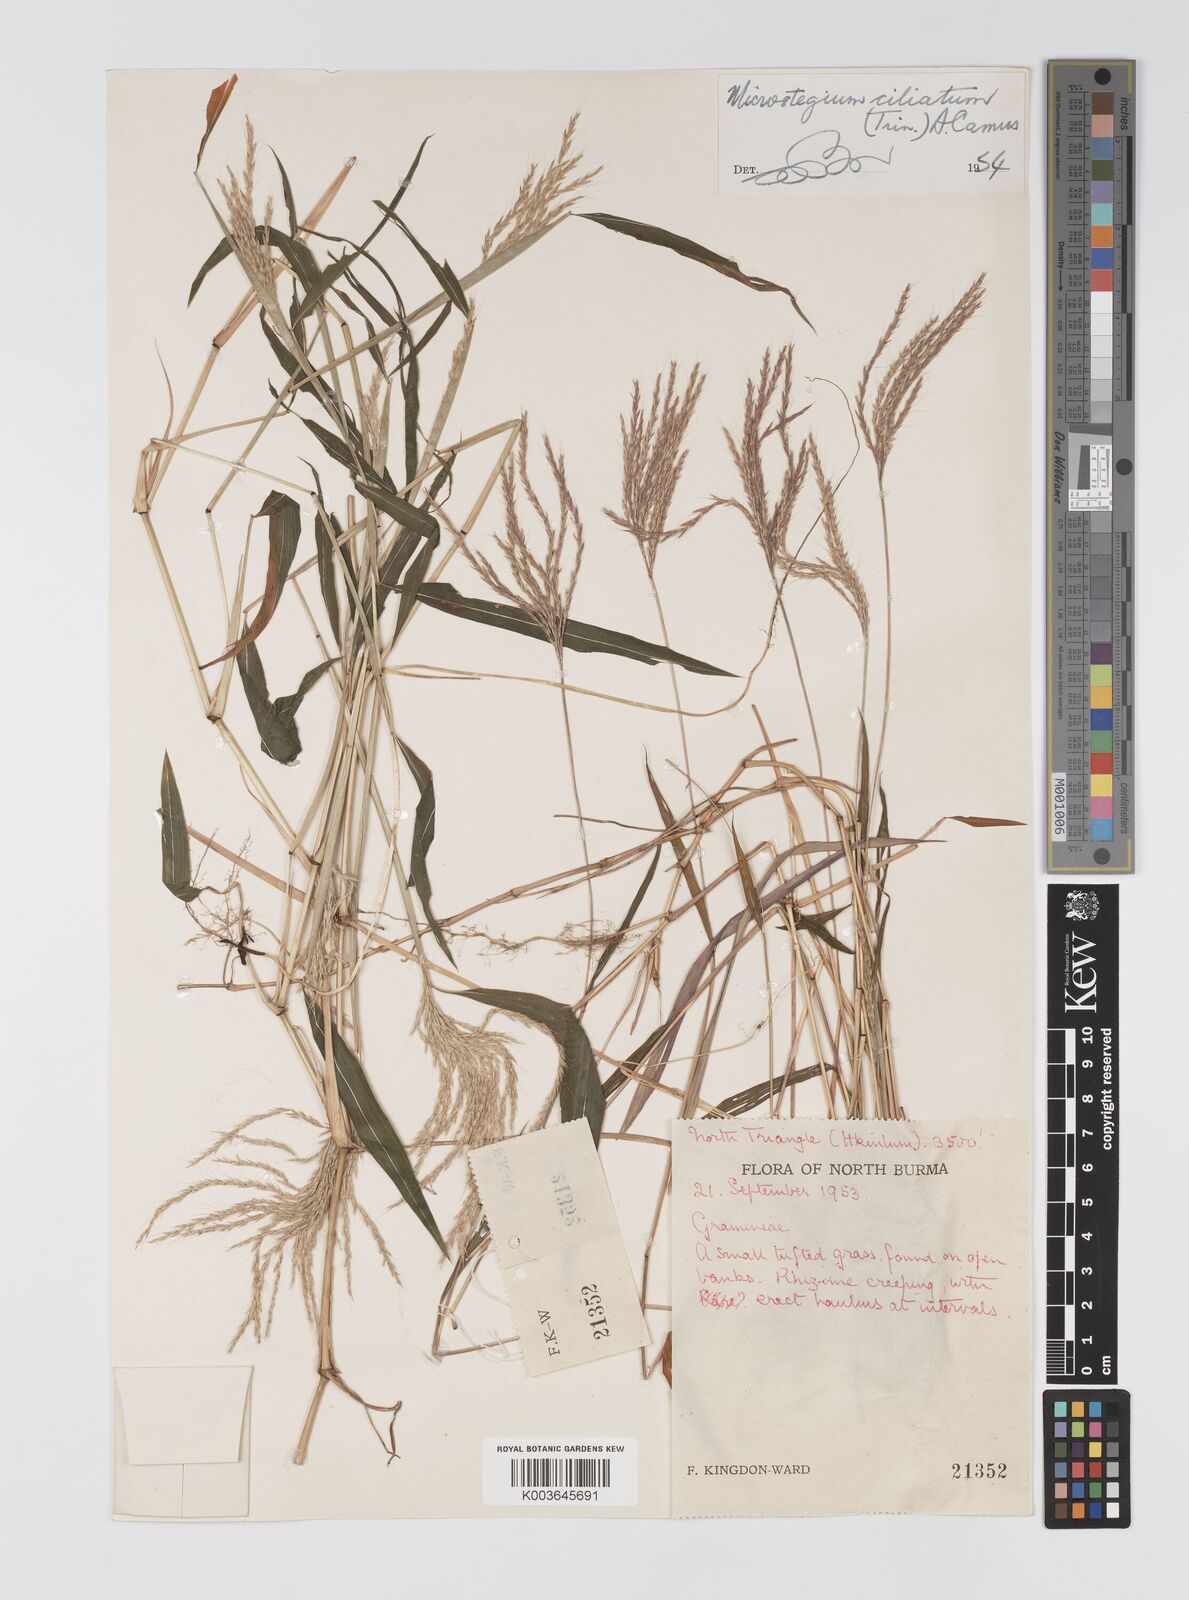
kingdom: Plantae
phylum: Tracheophyta
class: Liliopsida
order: Poales
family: Poaceae
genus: Microstegium
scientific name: Microstegium fasciculatum
